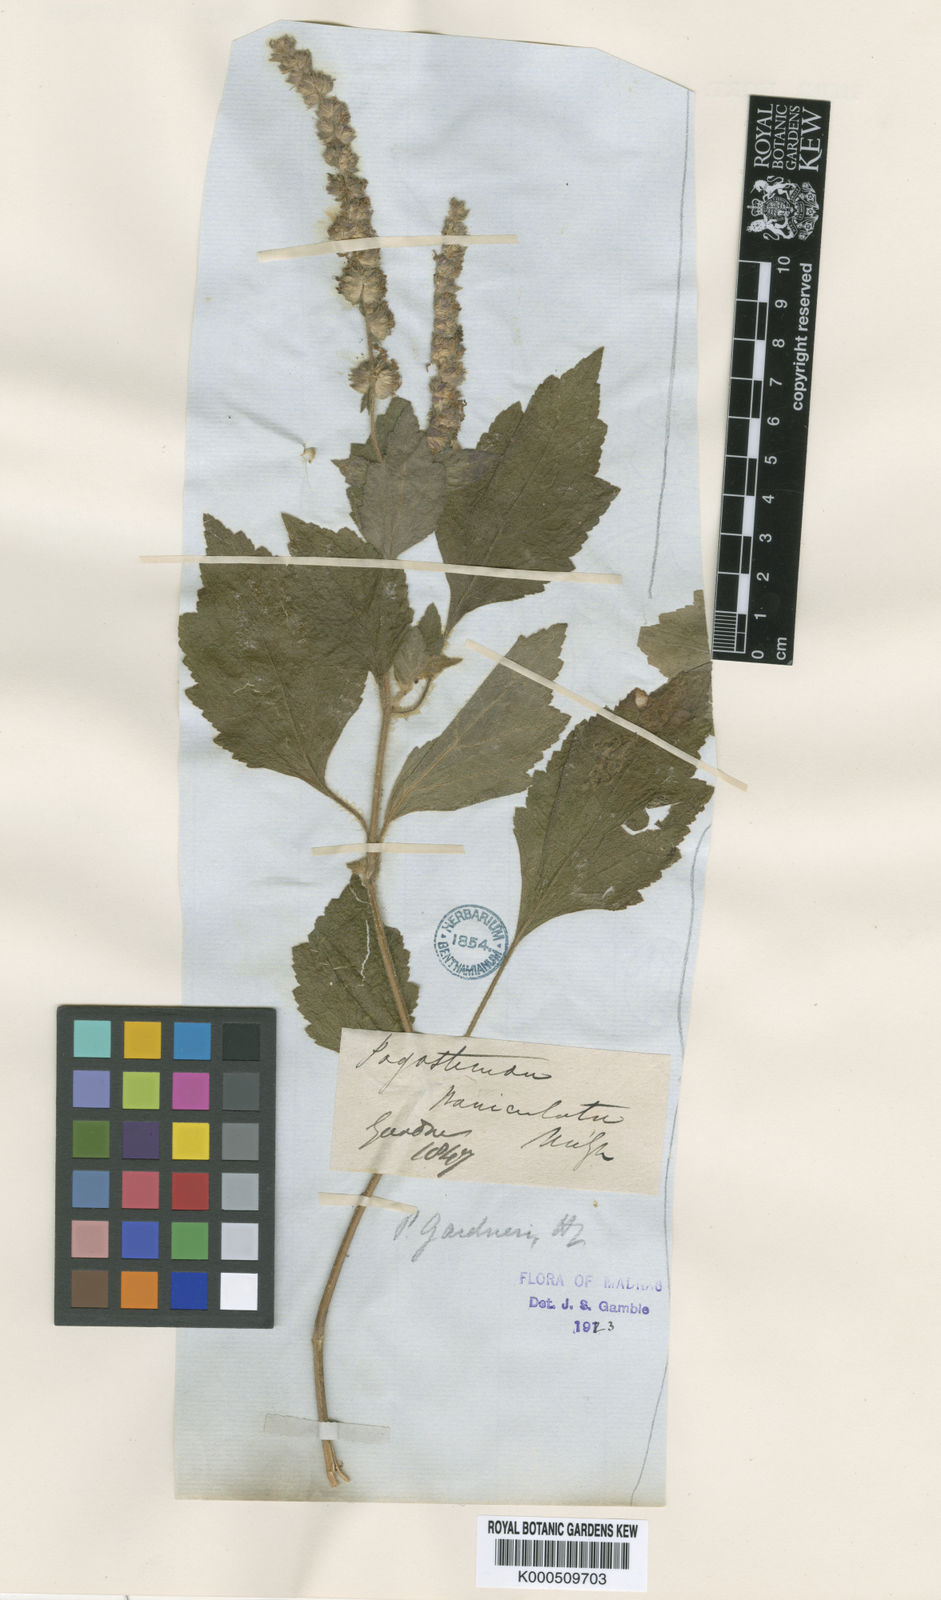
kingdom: Plantae
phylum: Tracheophyta
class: Magnoliopsida
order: Lamiales
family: Lamiaceae
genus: Pogostemon
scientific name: Pogostemon gardneri
